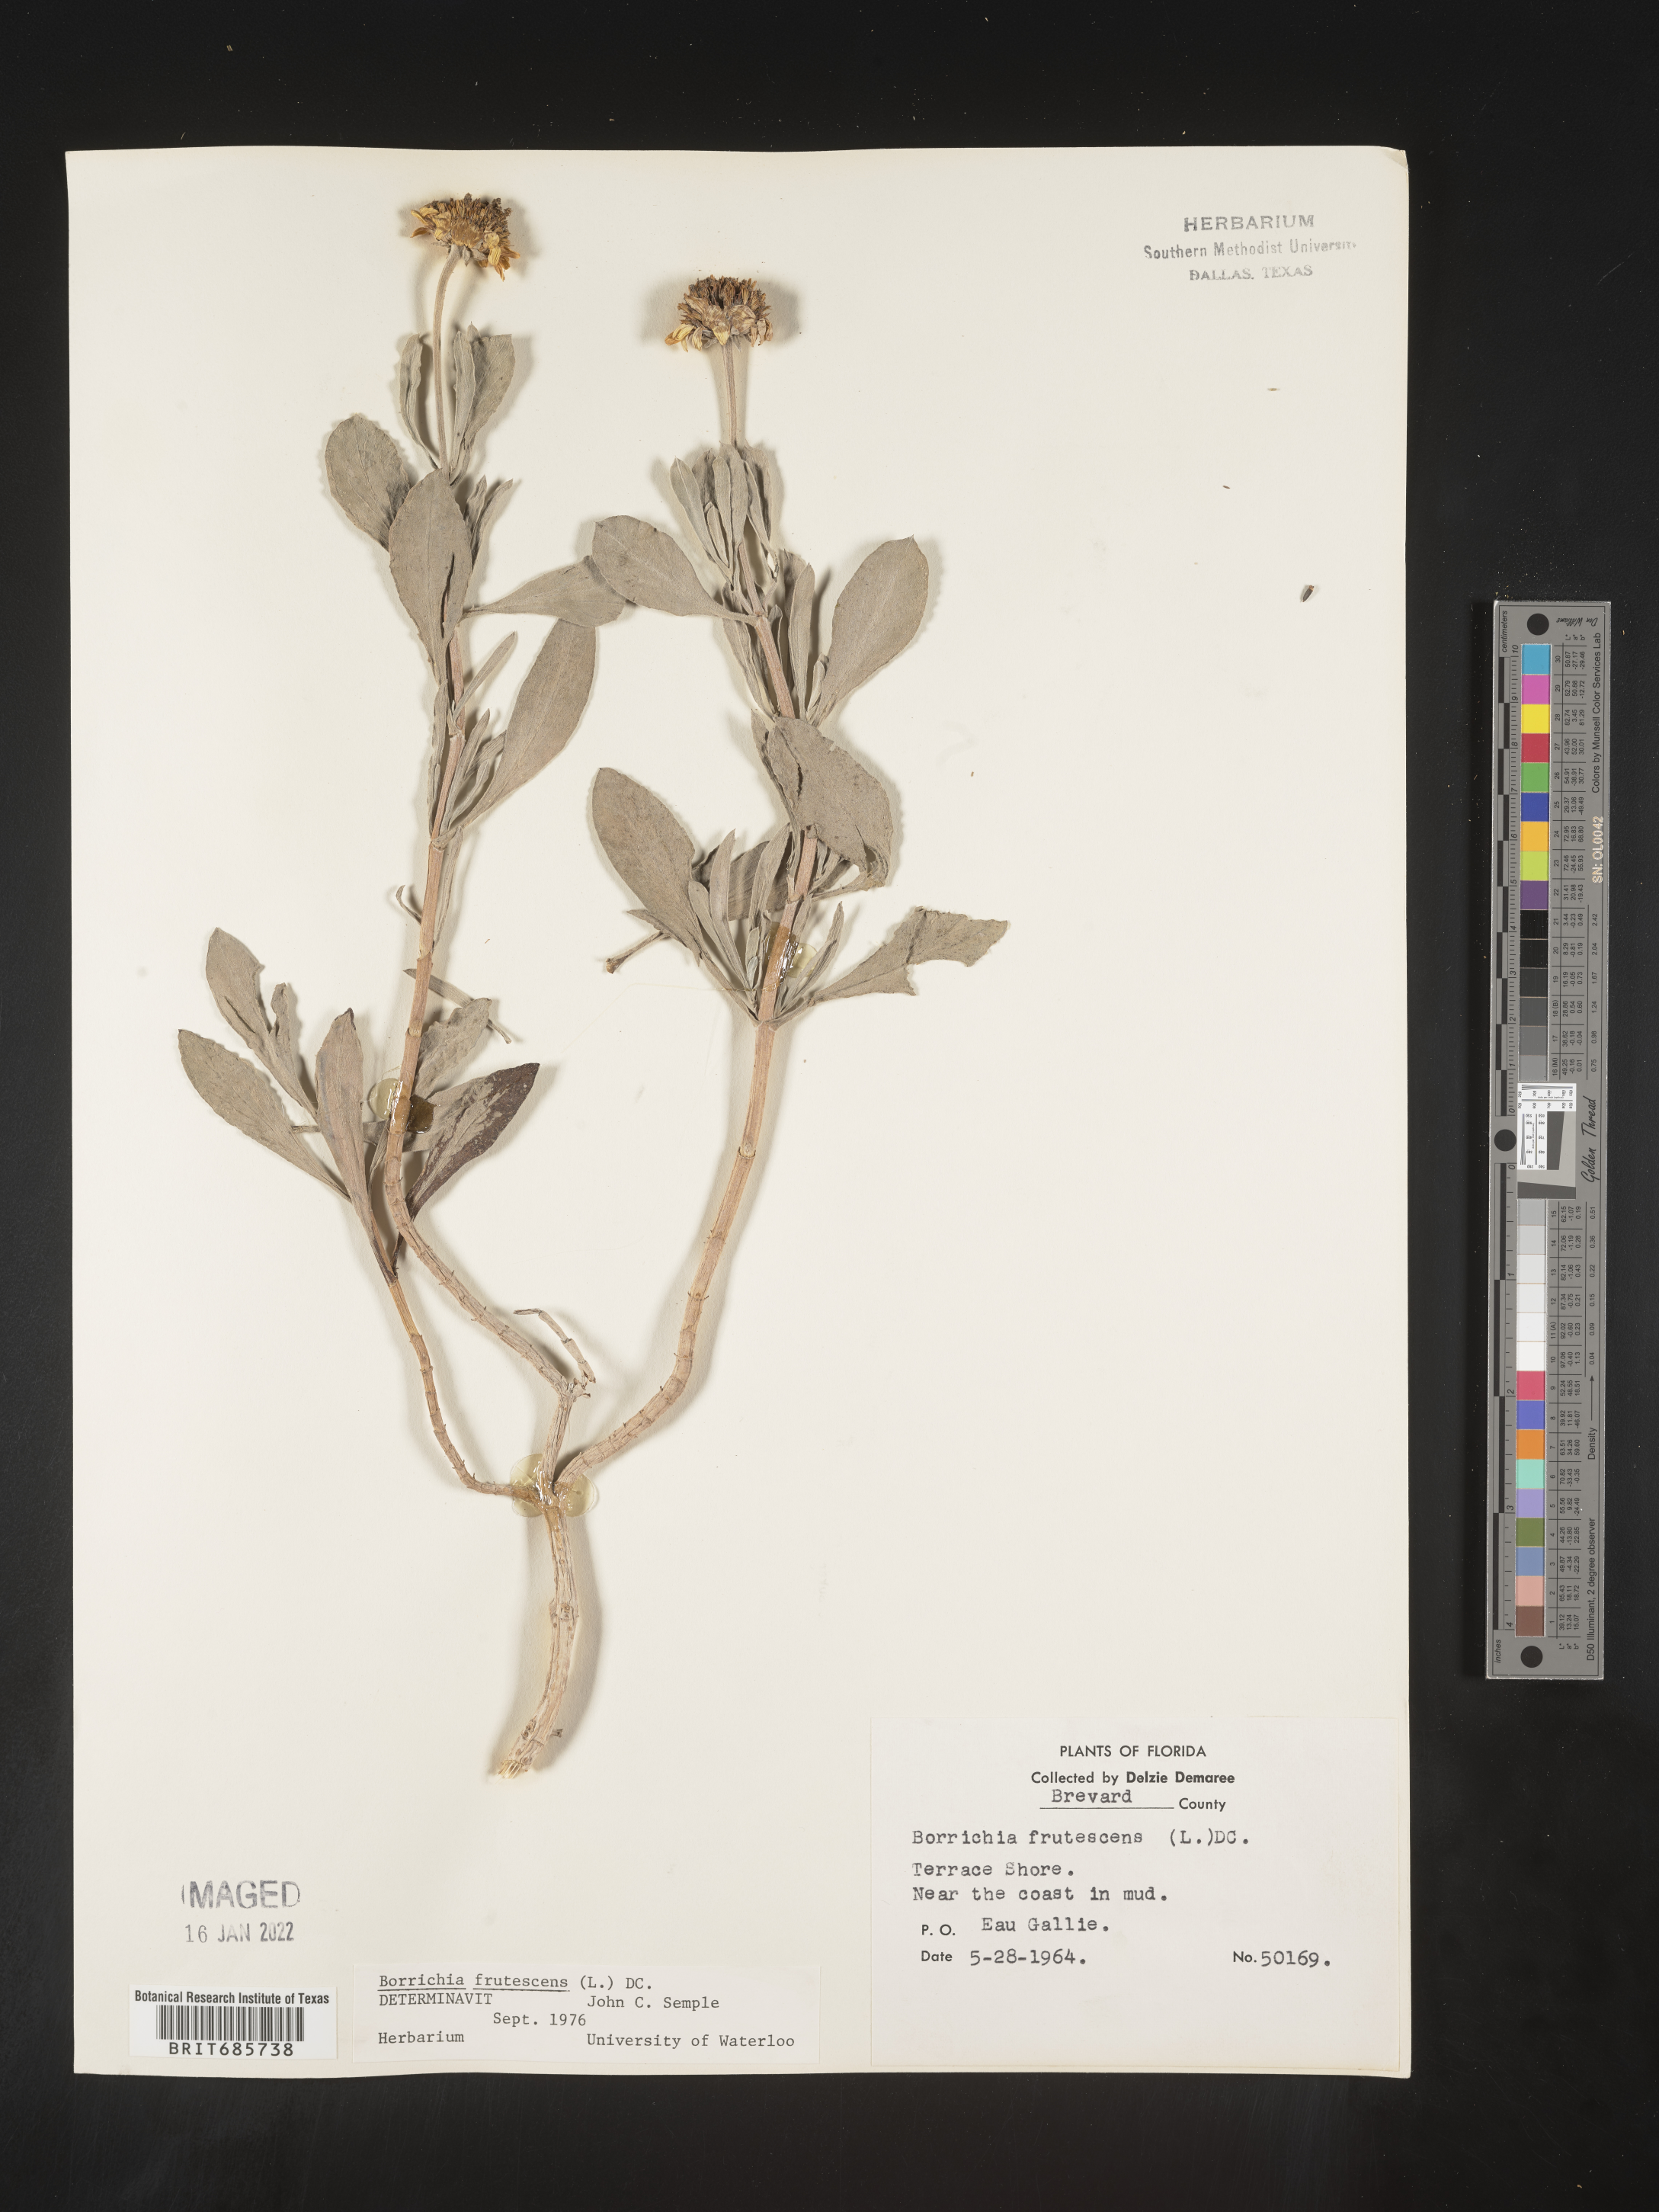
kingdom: Plantae
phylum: Tracheophyta
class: Magnoliopsida
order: Asterales
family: Asteraceae
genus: Borrichia
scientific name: Borrichia frutescens
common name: Sea oxeye
